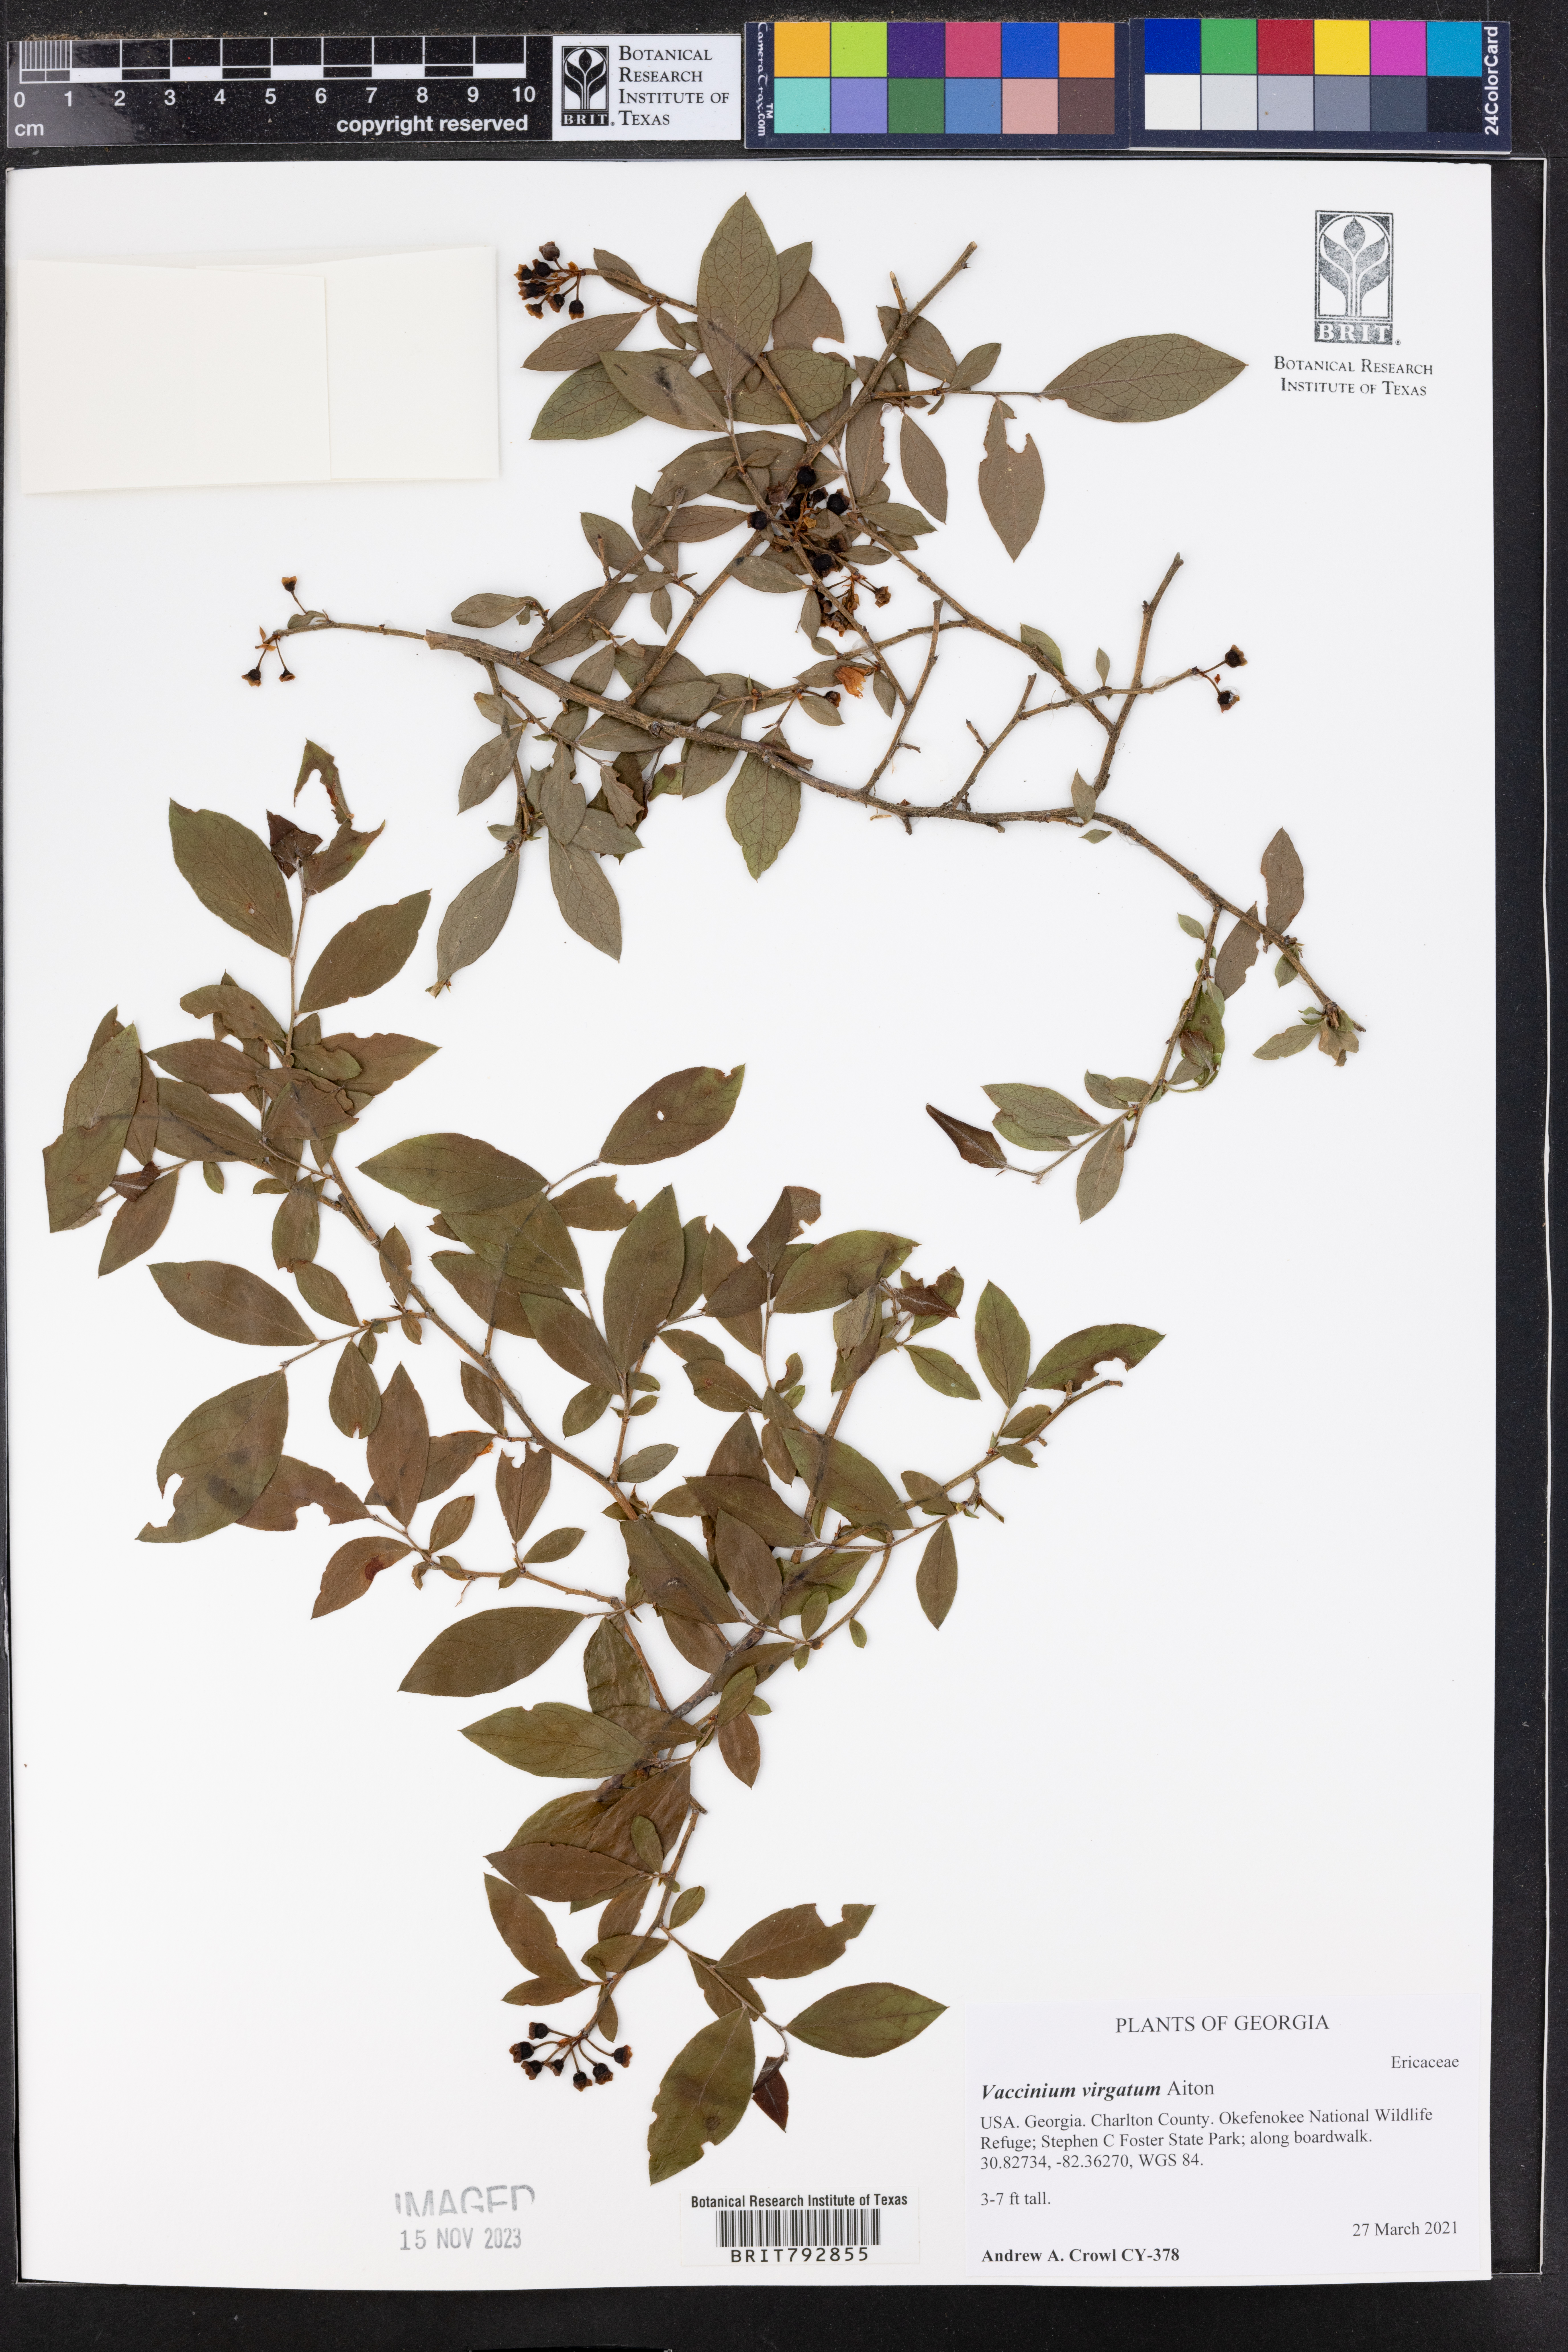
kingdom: Plantae
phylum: Tracheophyta
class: Magnoliopsida
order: Ericales
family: Ericaceae
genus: Vaccinium
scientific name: Vaccinium corymbosum
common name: Blueberry
